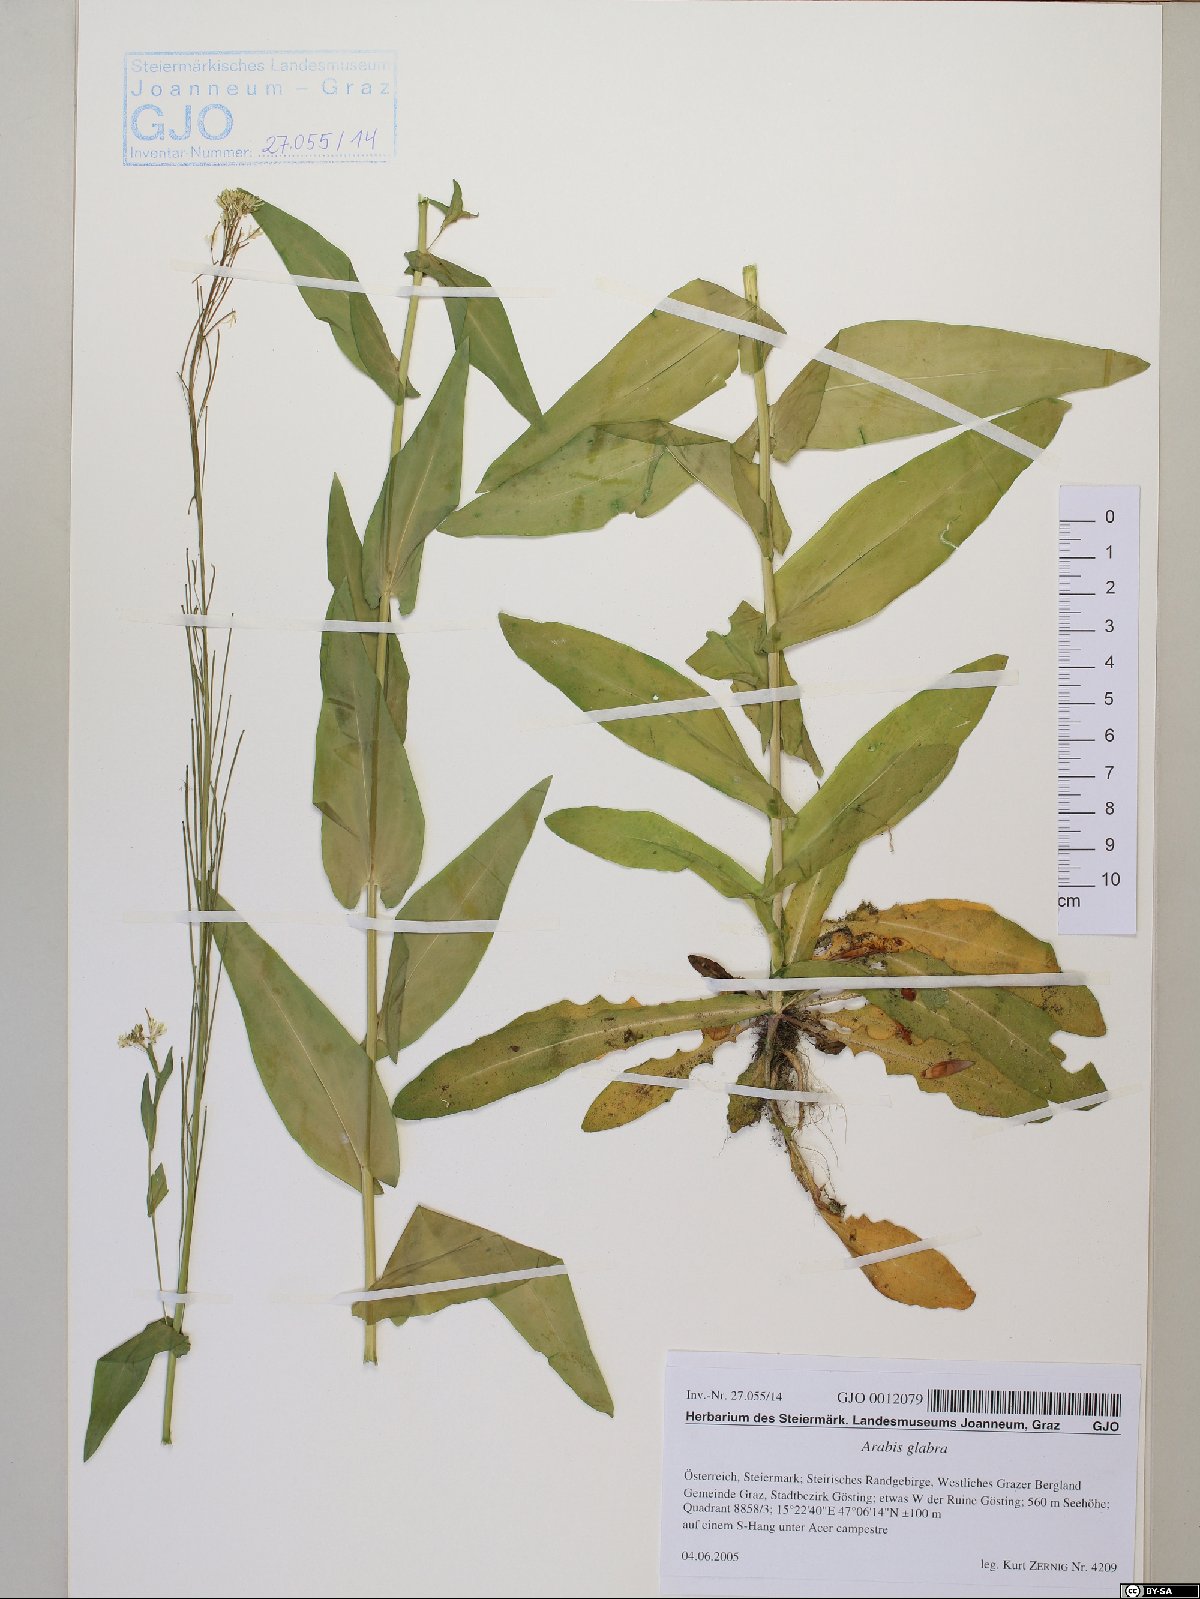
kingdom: Plantae
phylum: Tracheophyta
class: Magnoliopsida
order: Brassicales
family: Brassicaceae
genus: Turritis
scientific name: Turritis glabra
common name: Tower rockcress
